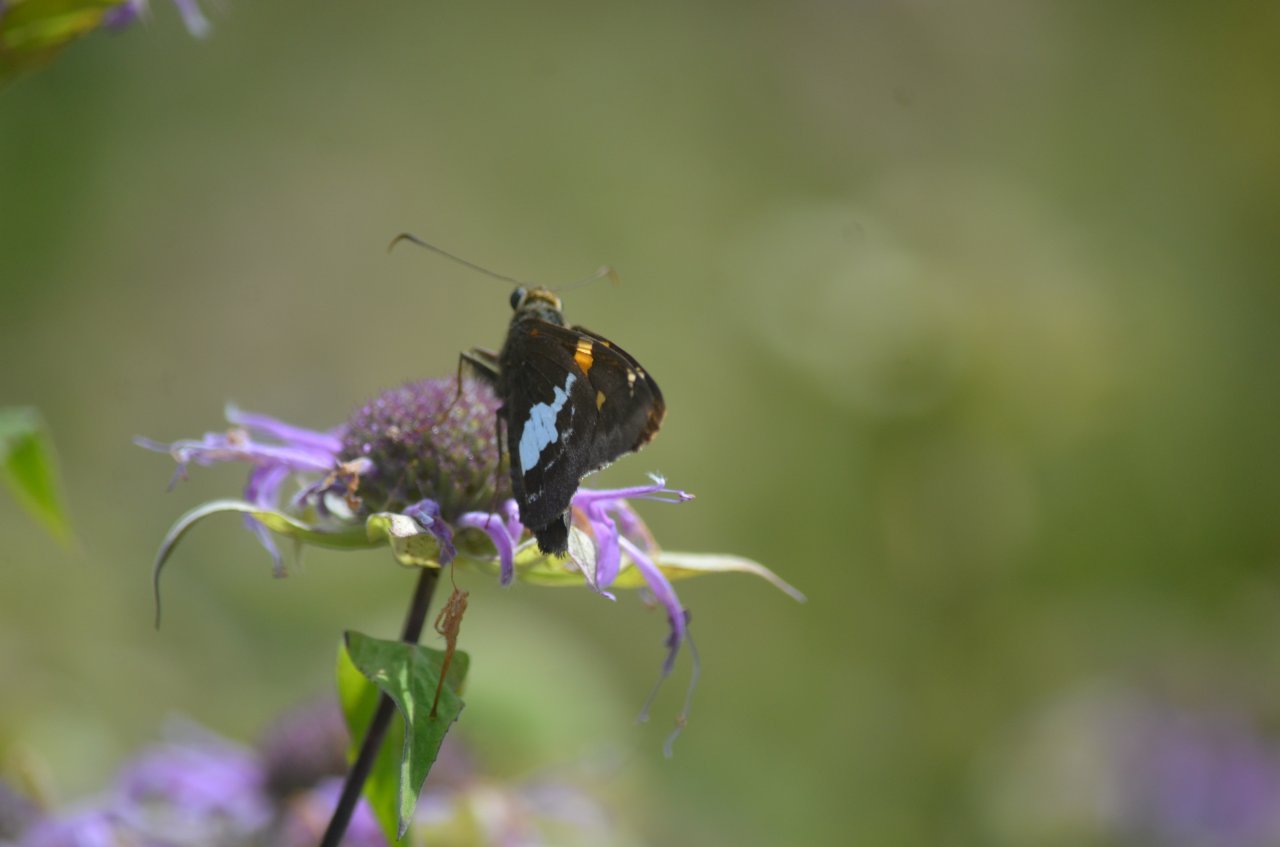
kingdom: Animalia
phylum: Arthropoda
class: Insecta
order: Lepidoptera
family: Hesperiidae
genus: Epargyreus
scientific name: Epargyreus clarus
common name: Silver-spotted Skipper
